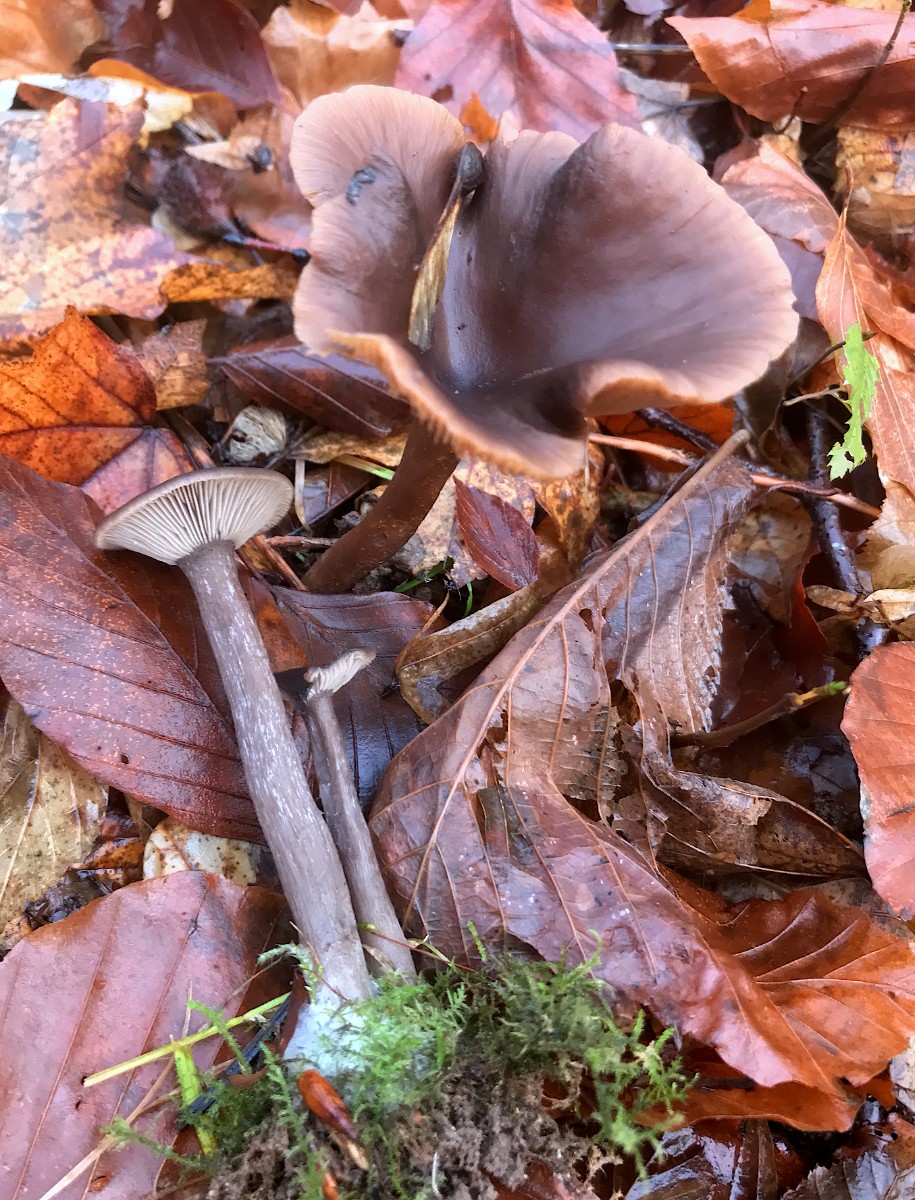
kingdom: Fungi
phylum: Basidiomycota
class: Agaricomycetes
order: Agaricales
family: Pseudoclitocybaceae
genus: Pseudoclitocybe
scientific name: Pseudoclitocybe cyathiformis
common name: almindelig bægertragthat
